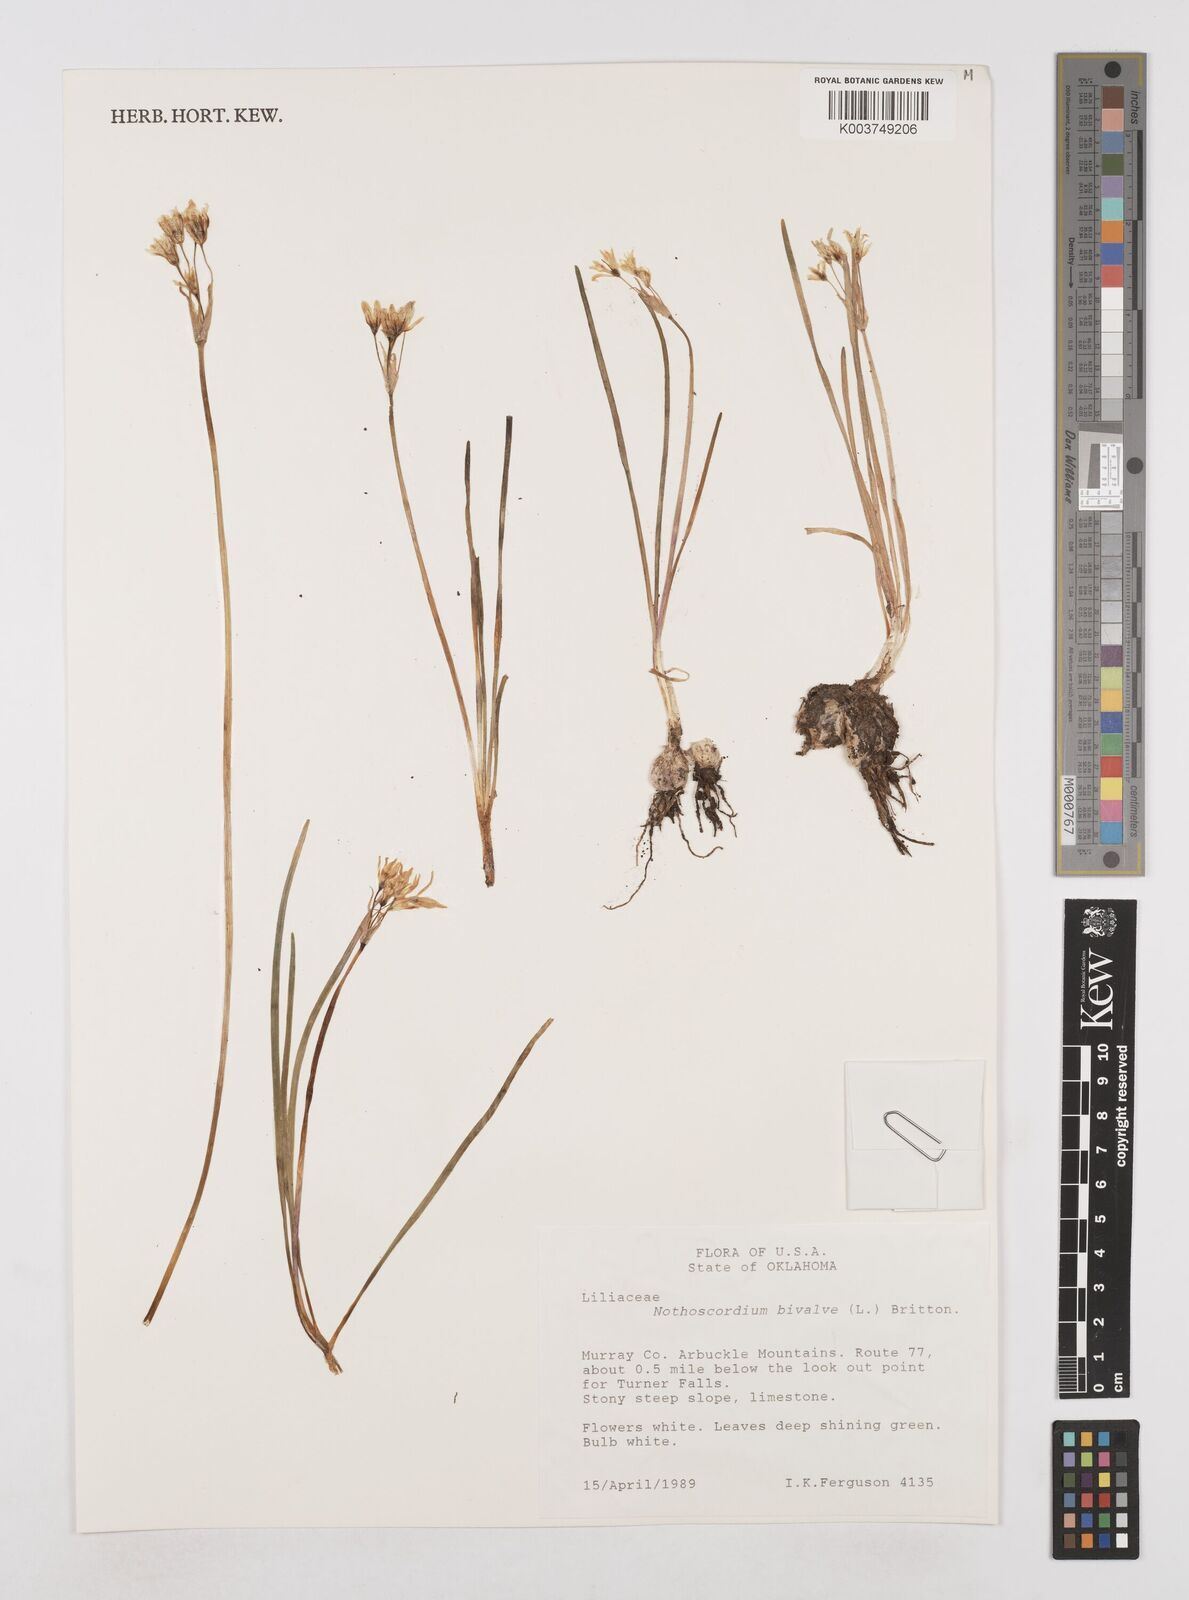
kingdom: Plantae
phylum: Tracheophyta
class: Liliopsida
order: Asparagales
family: Amaryllidaceae
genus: Nothoscordum
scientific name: Nothoscordum bivalve
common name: Crow-poison
